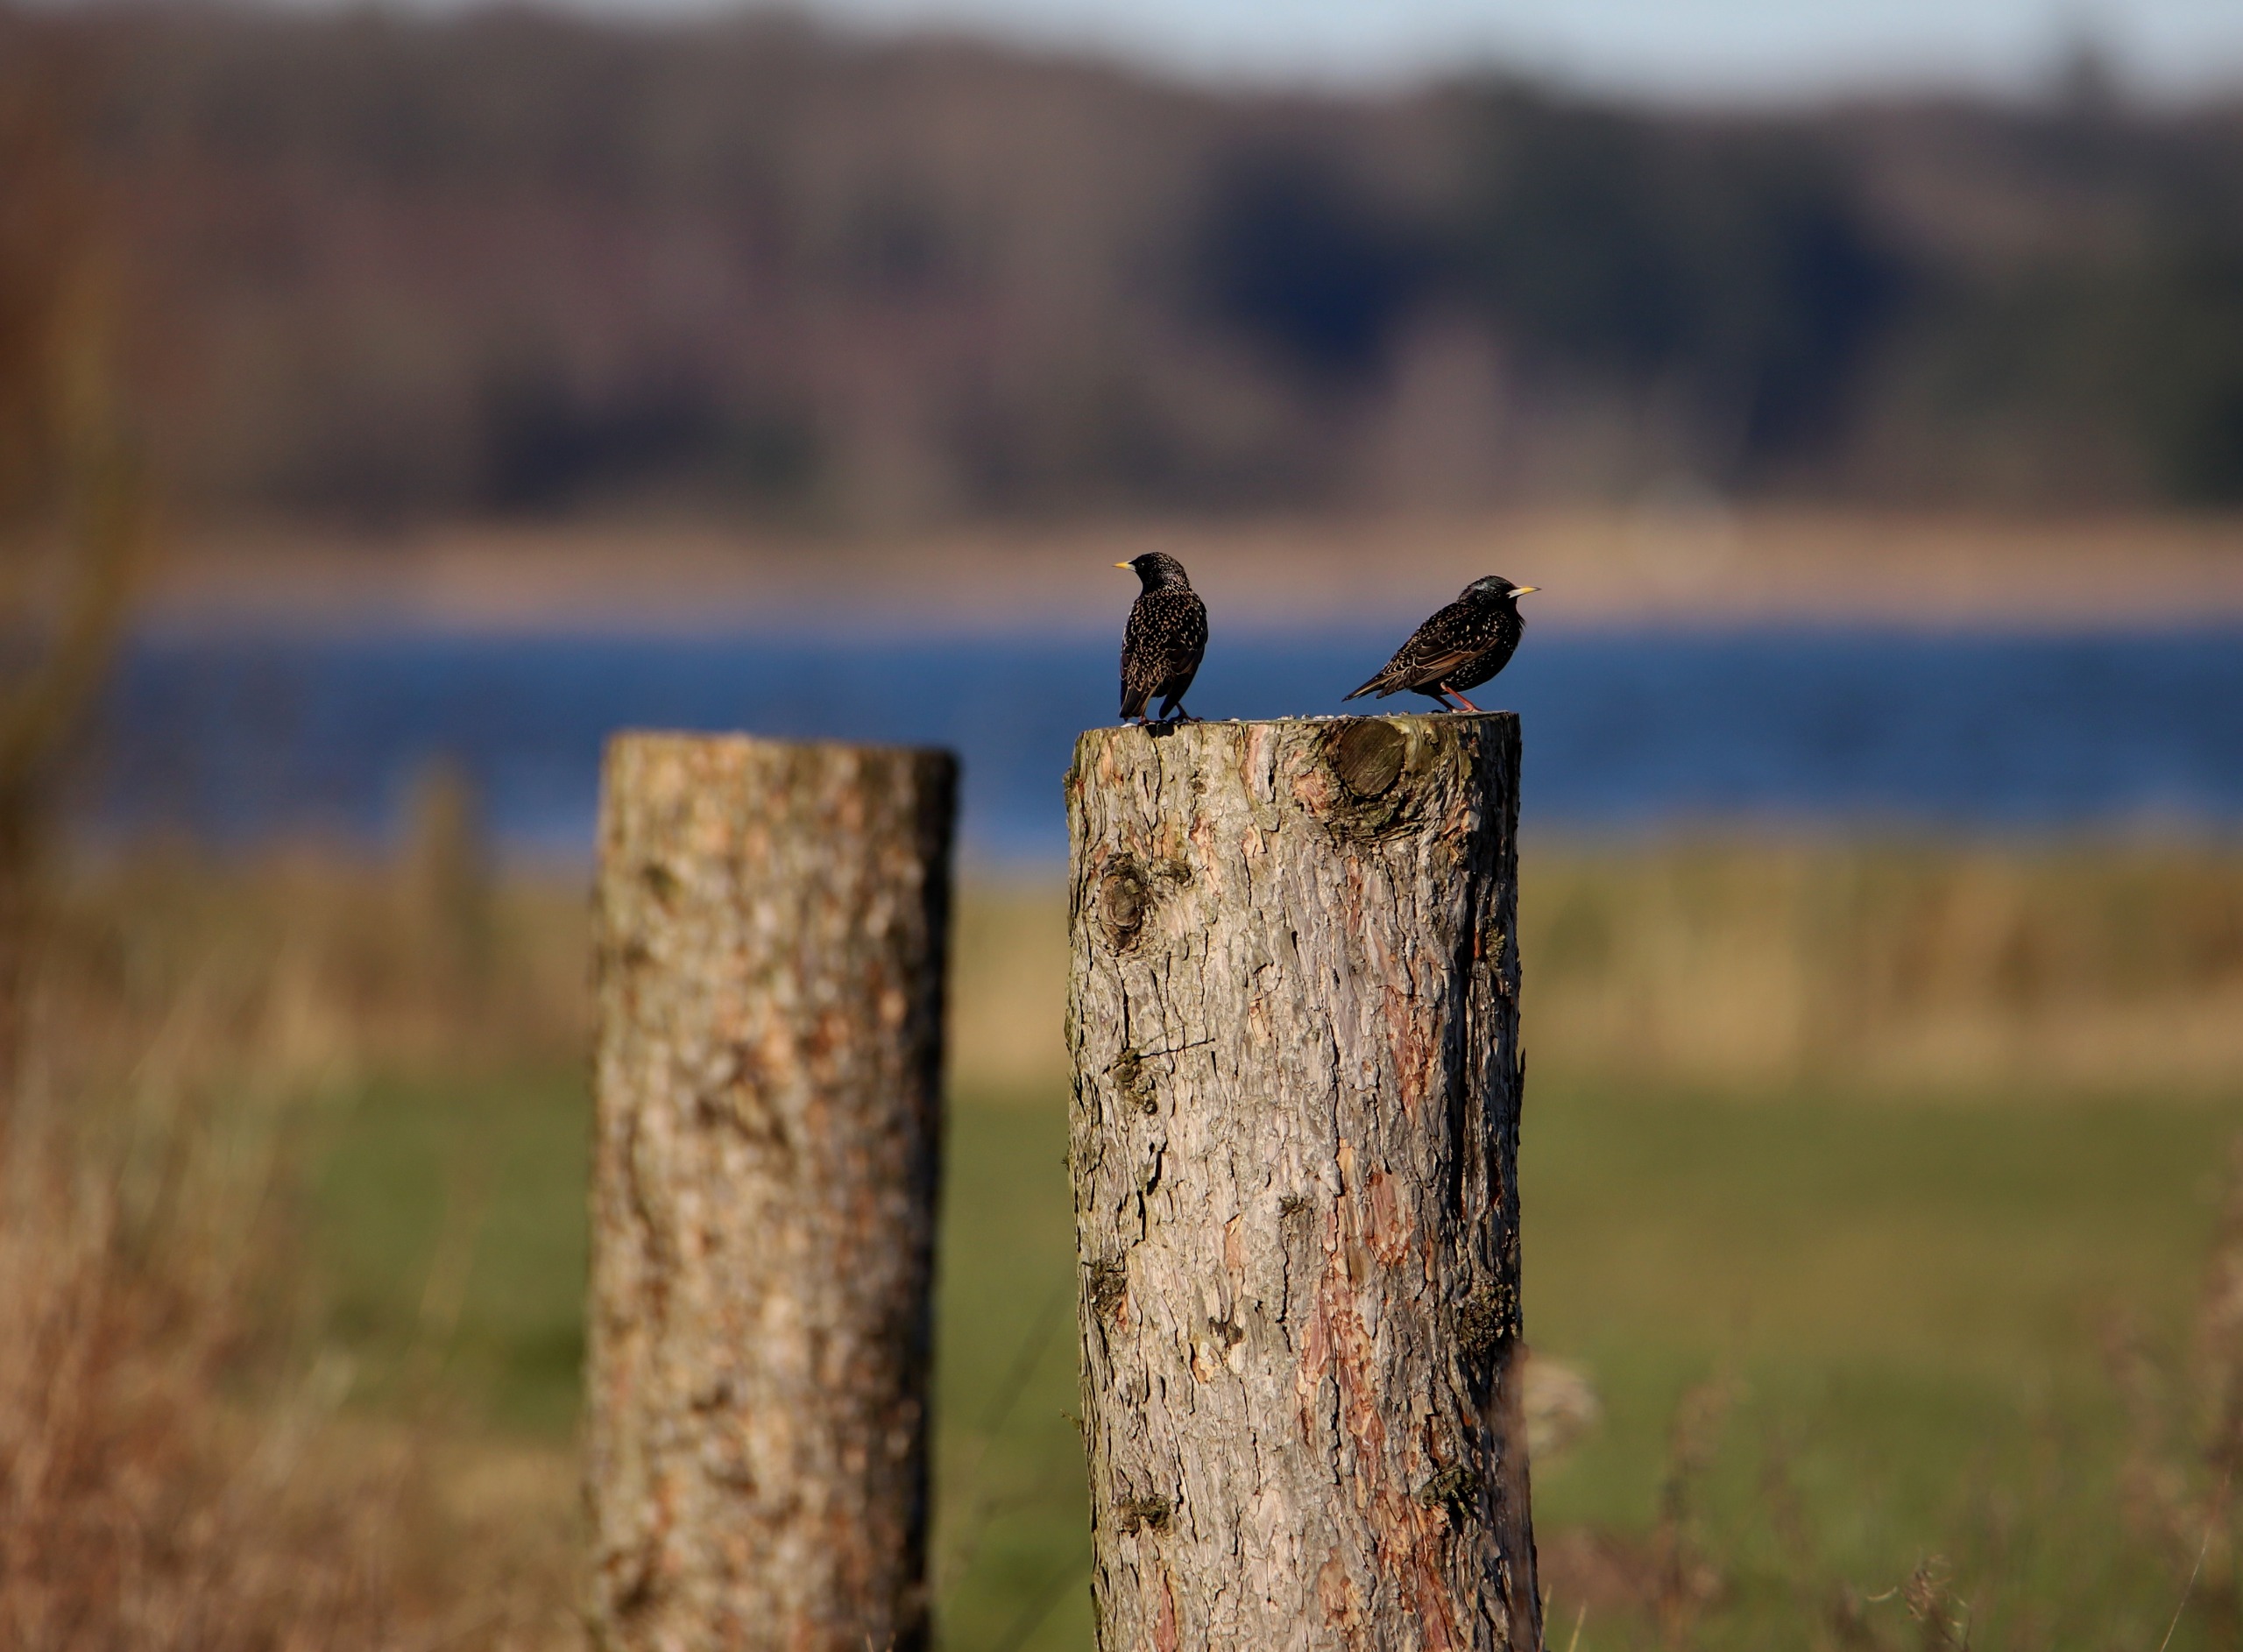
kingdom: Animalia
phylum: Chordata
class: Aves
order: Passeriformes
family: Sturnidae
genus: Sturnus
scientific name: Sturnus vulgaris
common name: Stær
